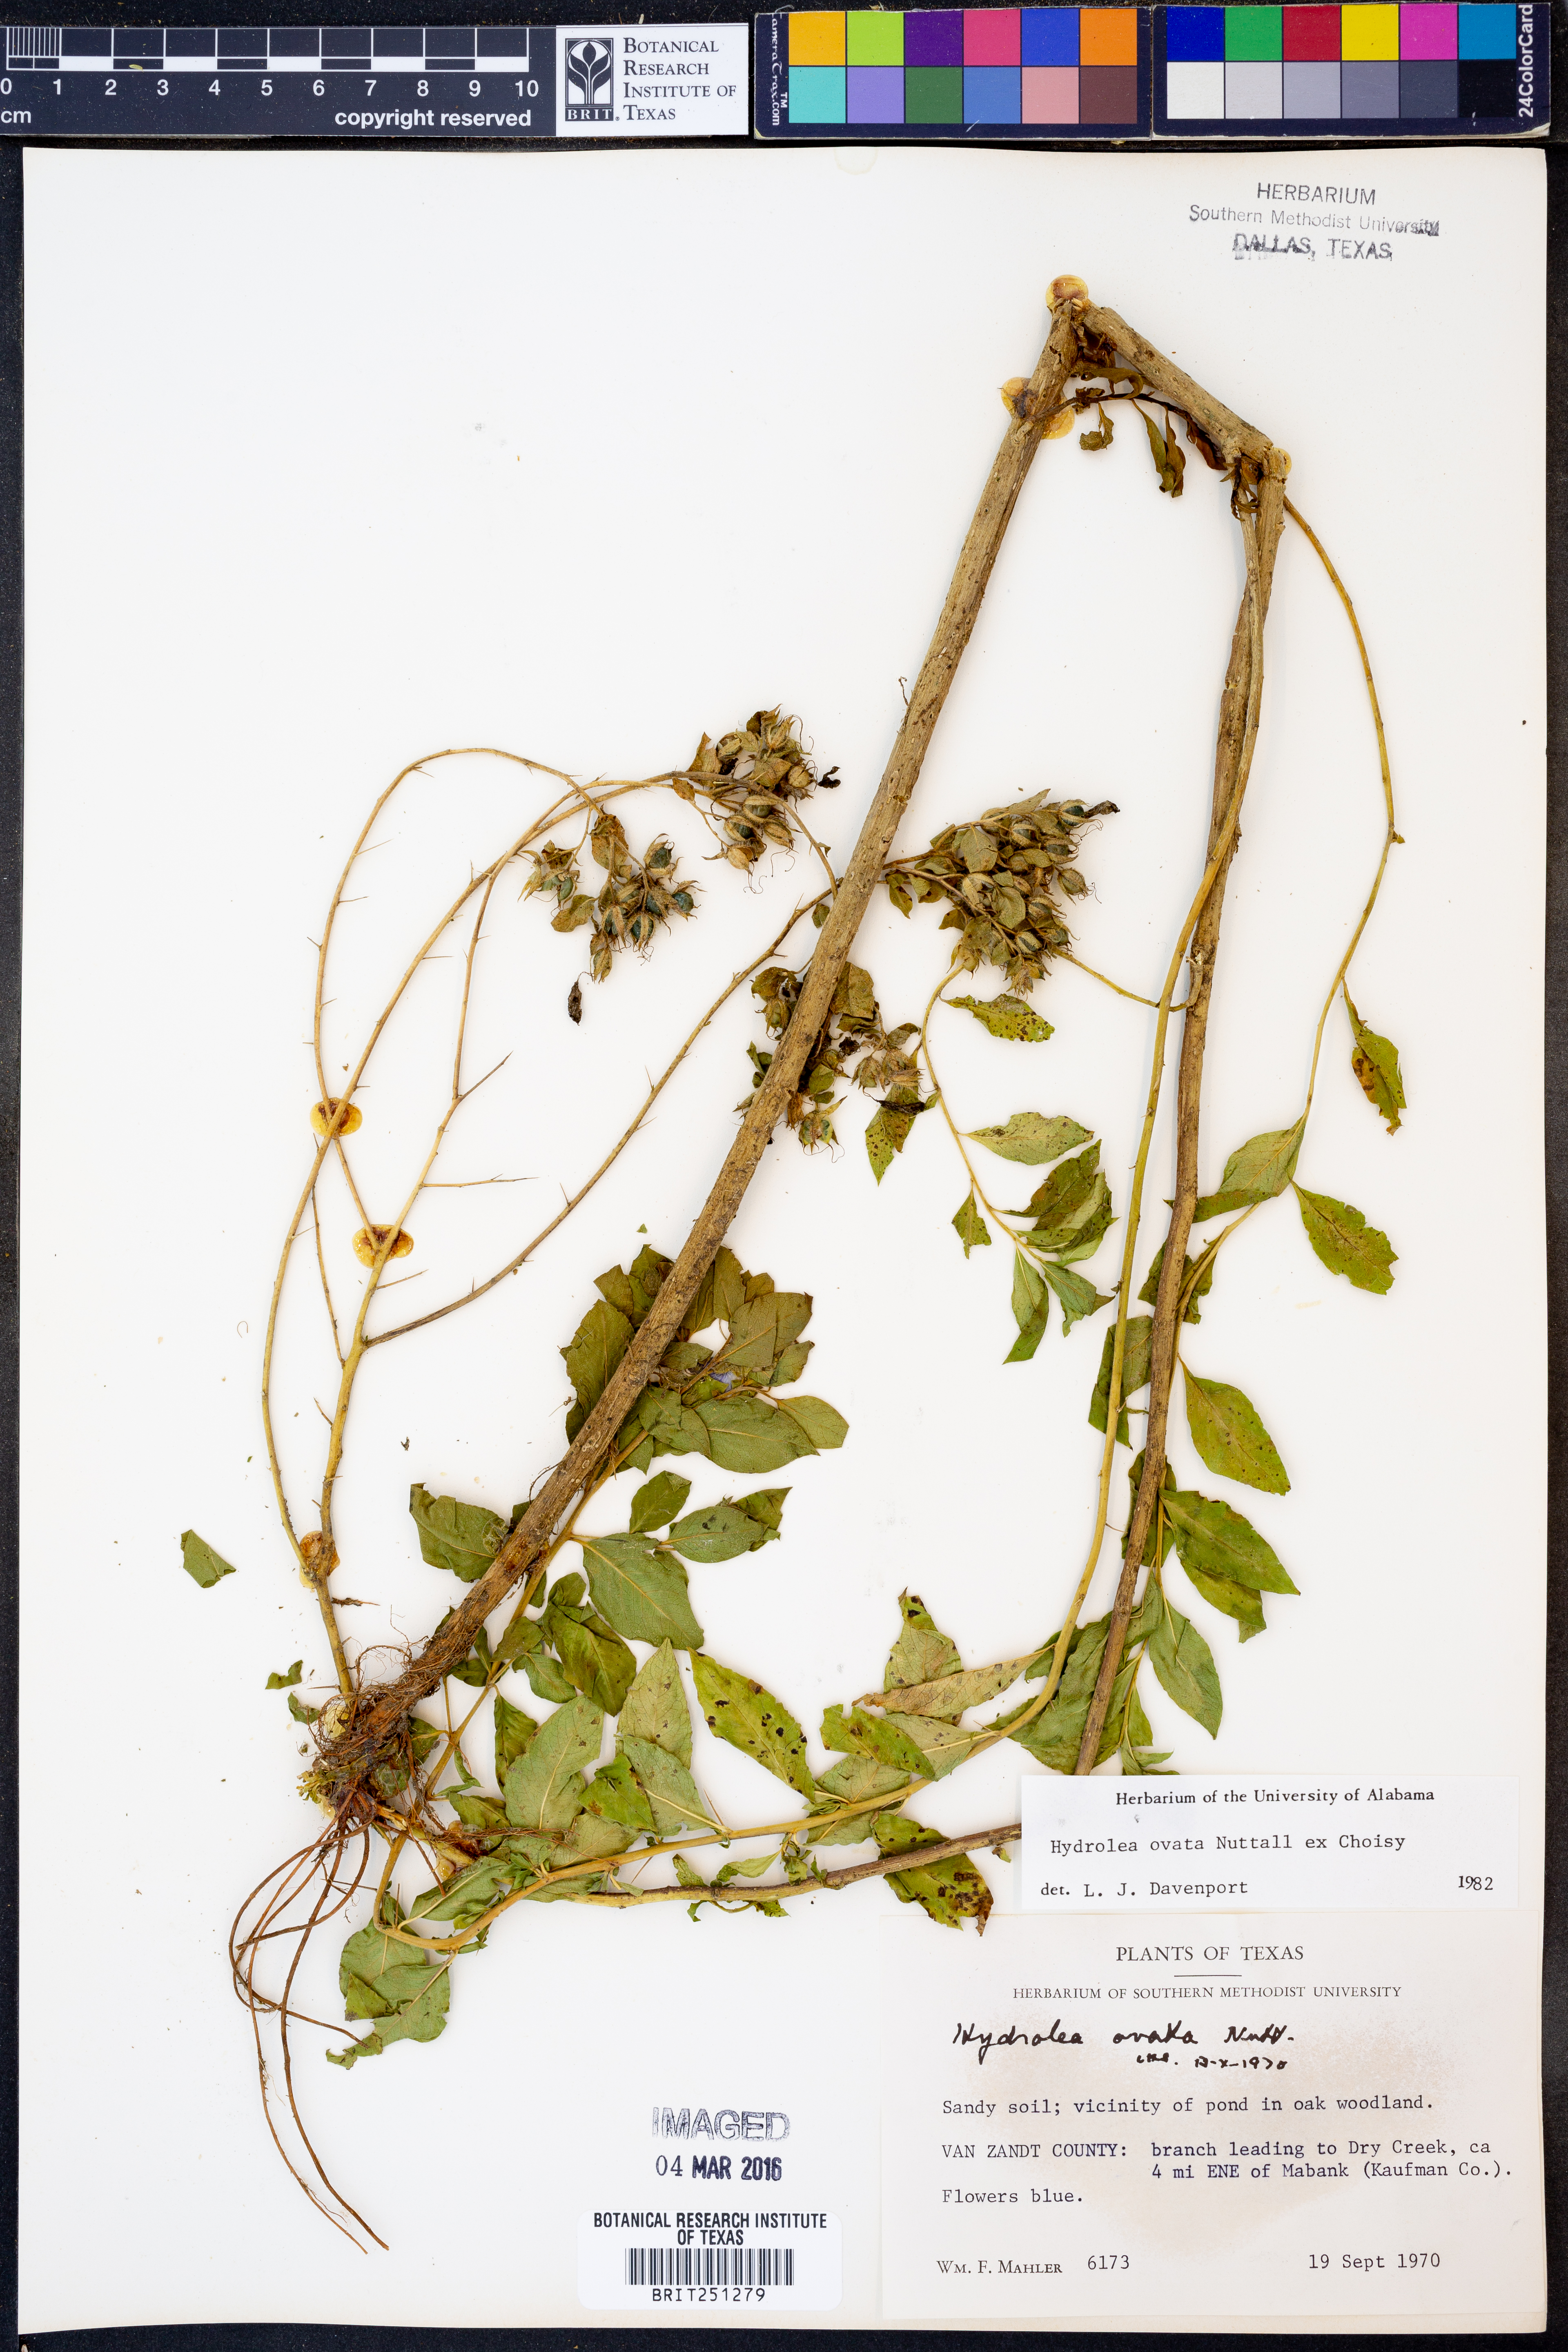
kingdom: Plantae
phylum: Tracheophyta
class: Magnoliopsida
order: Solanales
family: Hydroleaceae
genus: Hydrolea
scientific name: Hydrolea ovata
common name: Ovate false fiddleleaf
